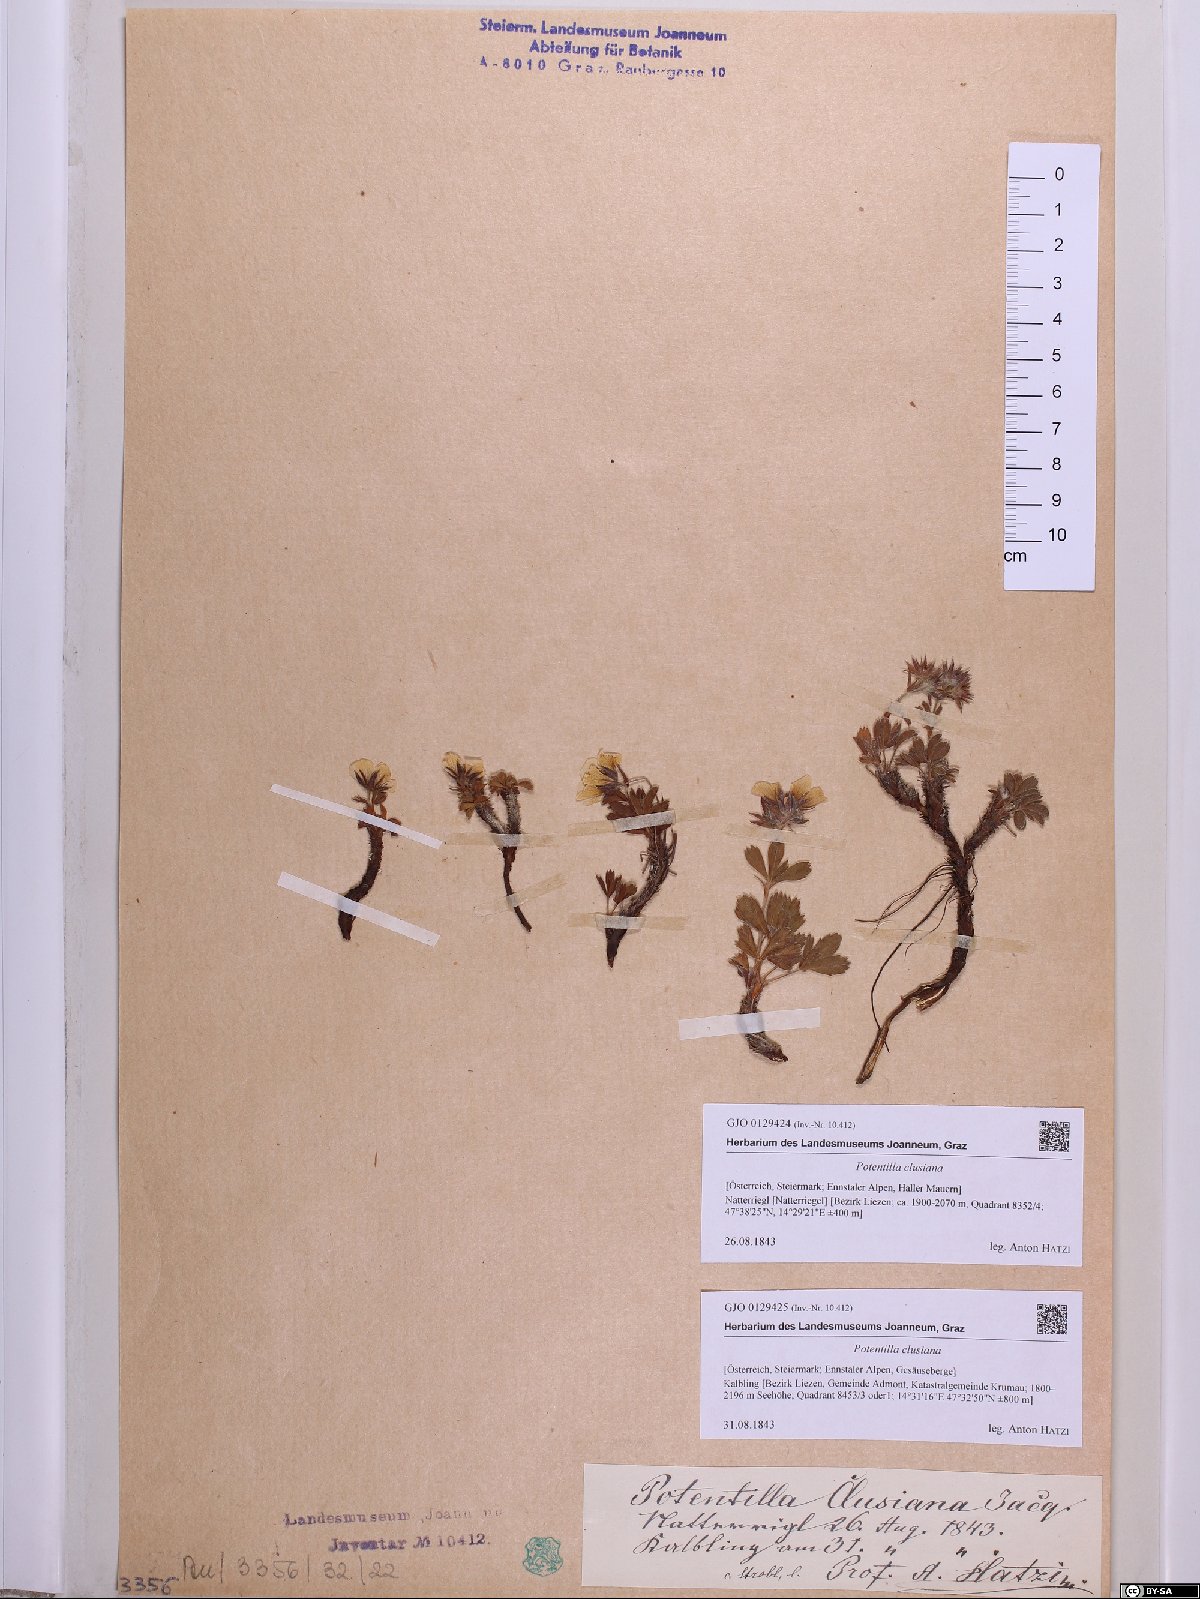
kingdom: Plantae
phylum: Tracheophyta
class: Magnoliopsida
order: Rosales
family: Rosaceae
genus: Potentilla
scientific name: Potentilla clusiana
